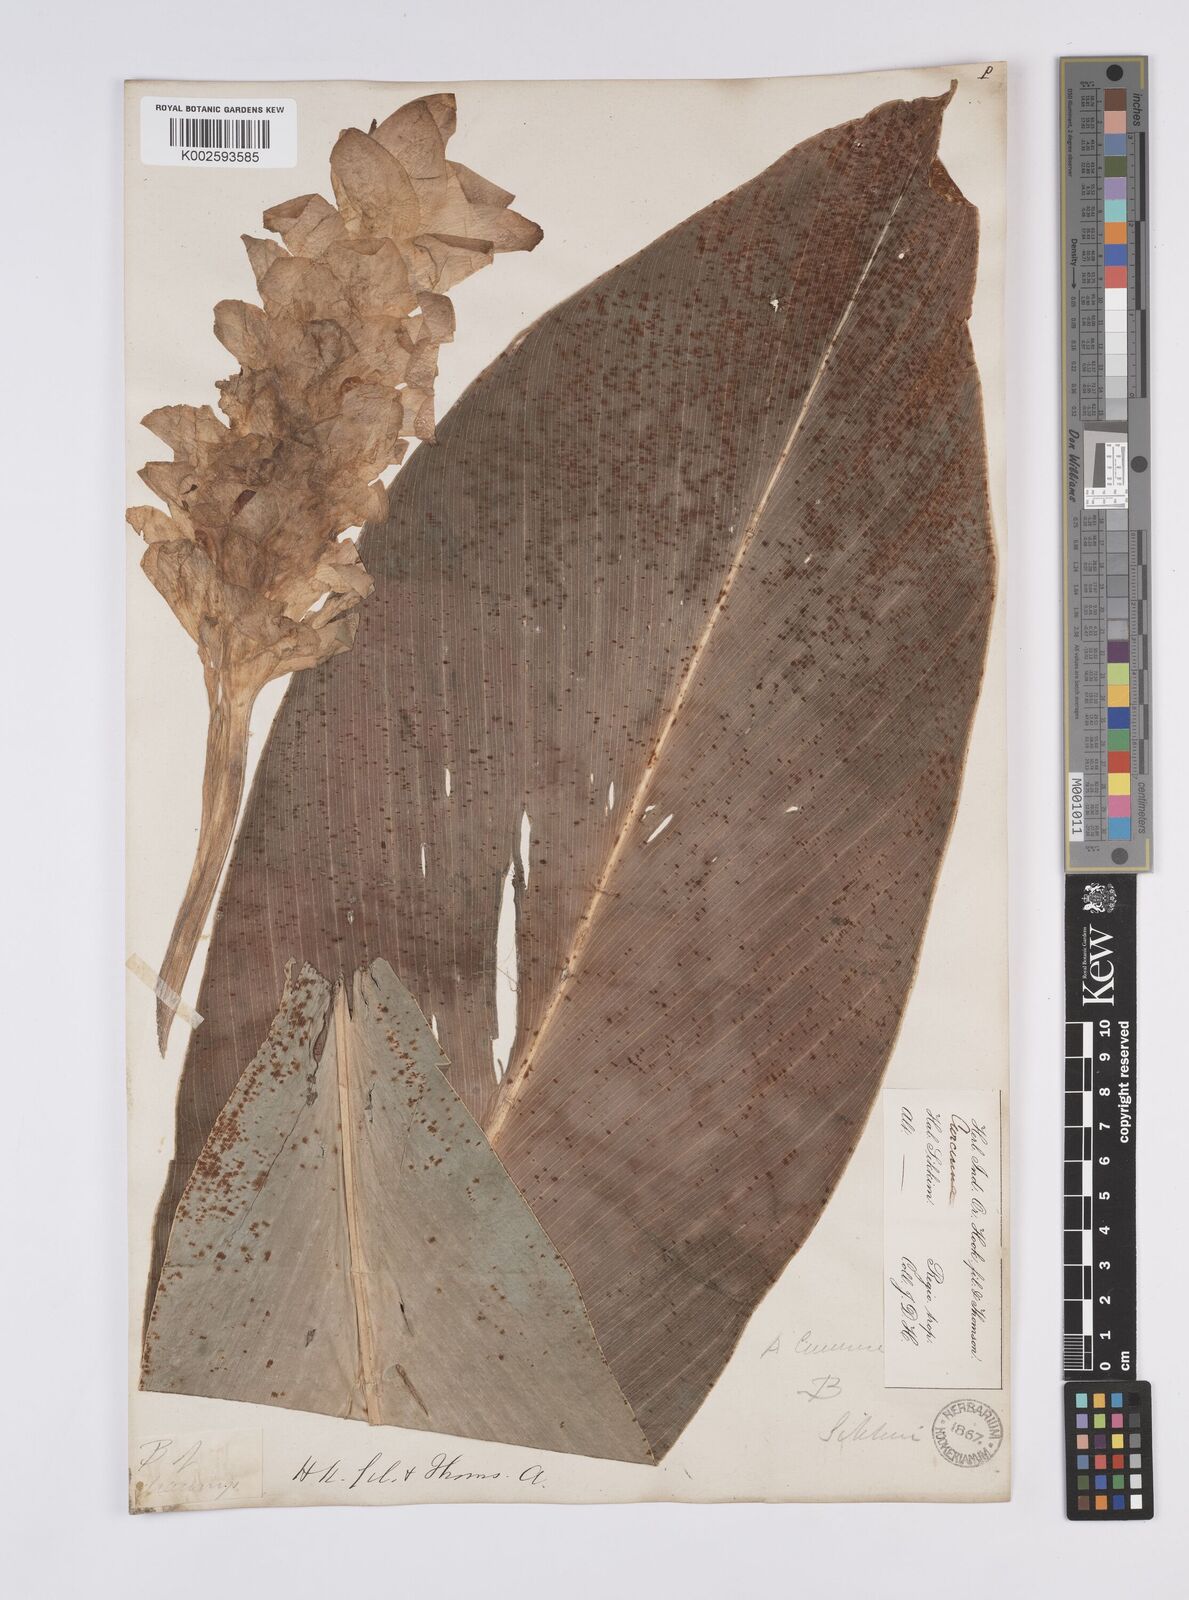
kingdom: Plantae
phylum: Tracheophyta
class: Liliopsida
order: Zingiberales
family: Zingiberaceae
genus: Curcuma
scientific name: Curcuma aromatica
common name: Wild turmeric
